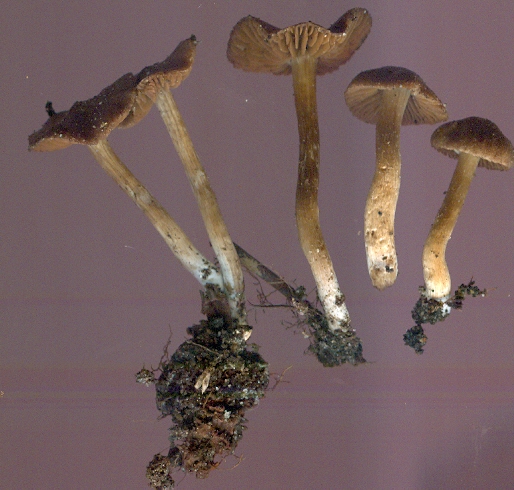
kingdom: Fungi
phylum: Basidiomycota
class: Agaricomycetes
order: Agaricales
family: Cortinariaceae
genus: Cortinarius
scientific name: Cortinarius
